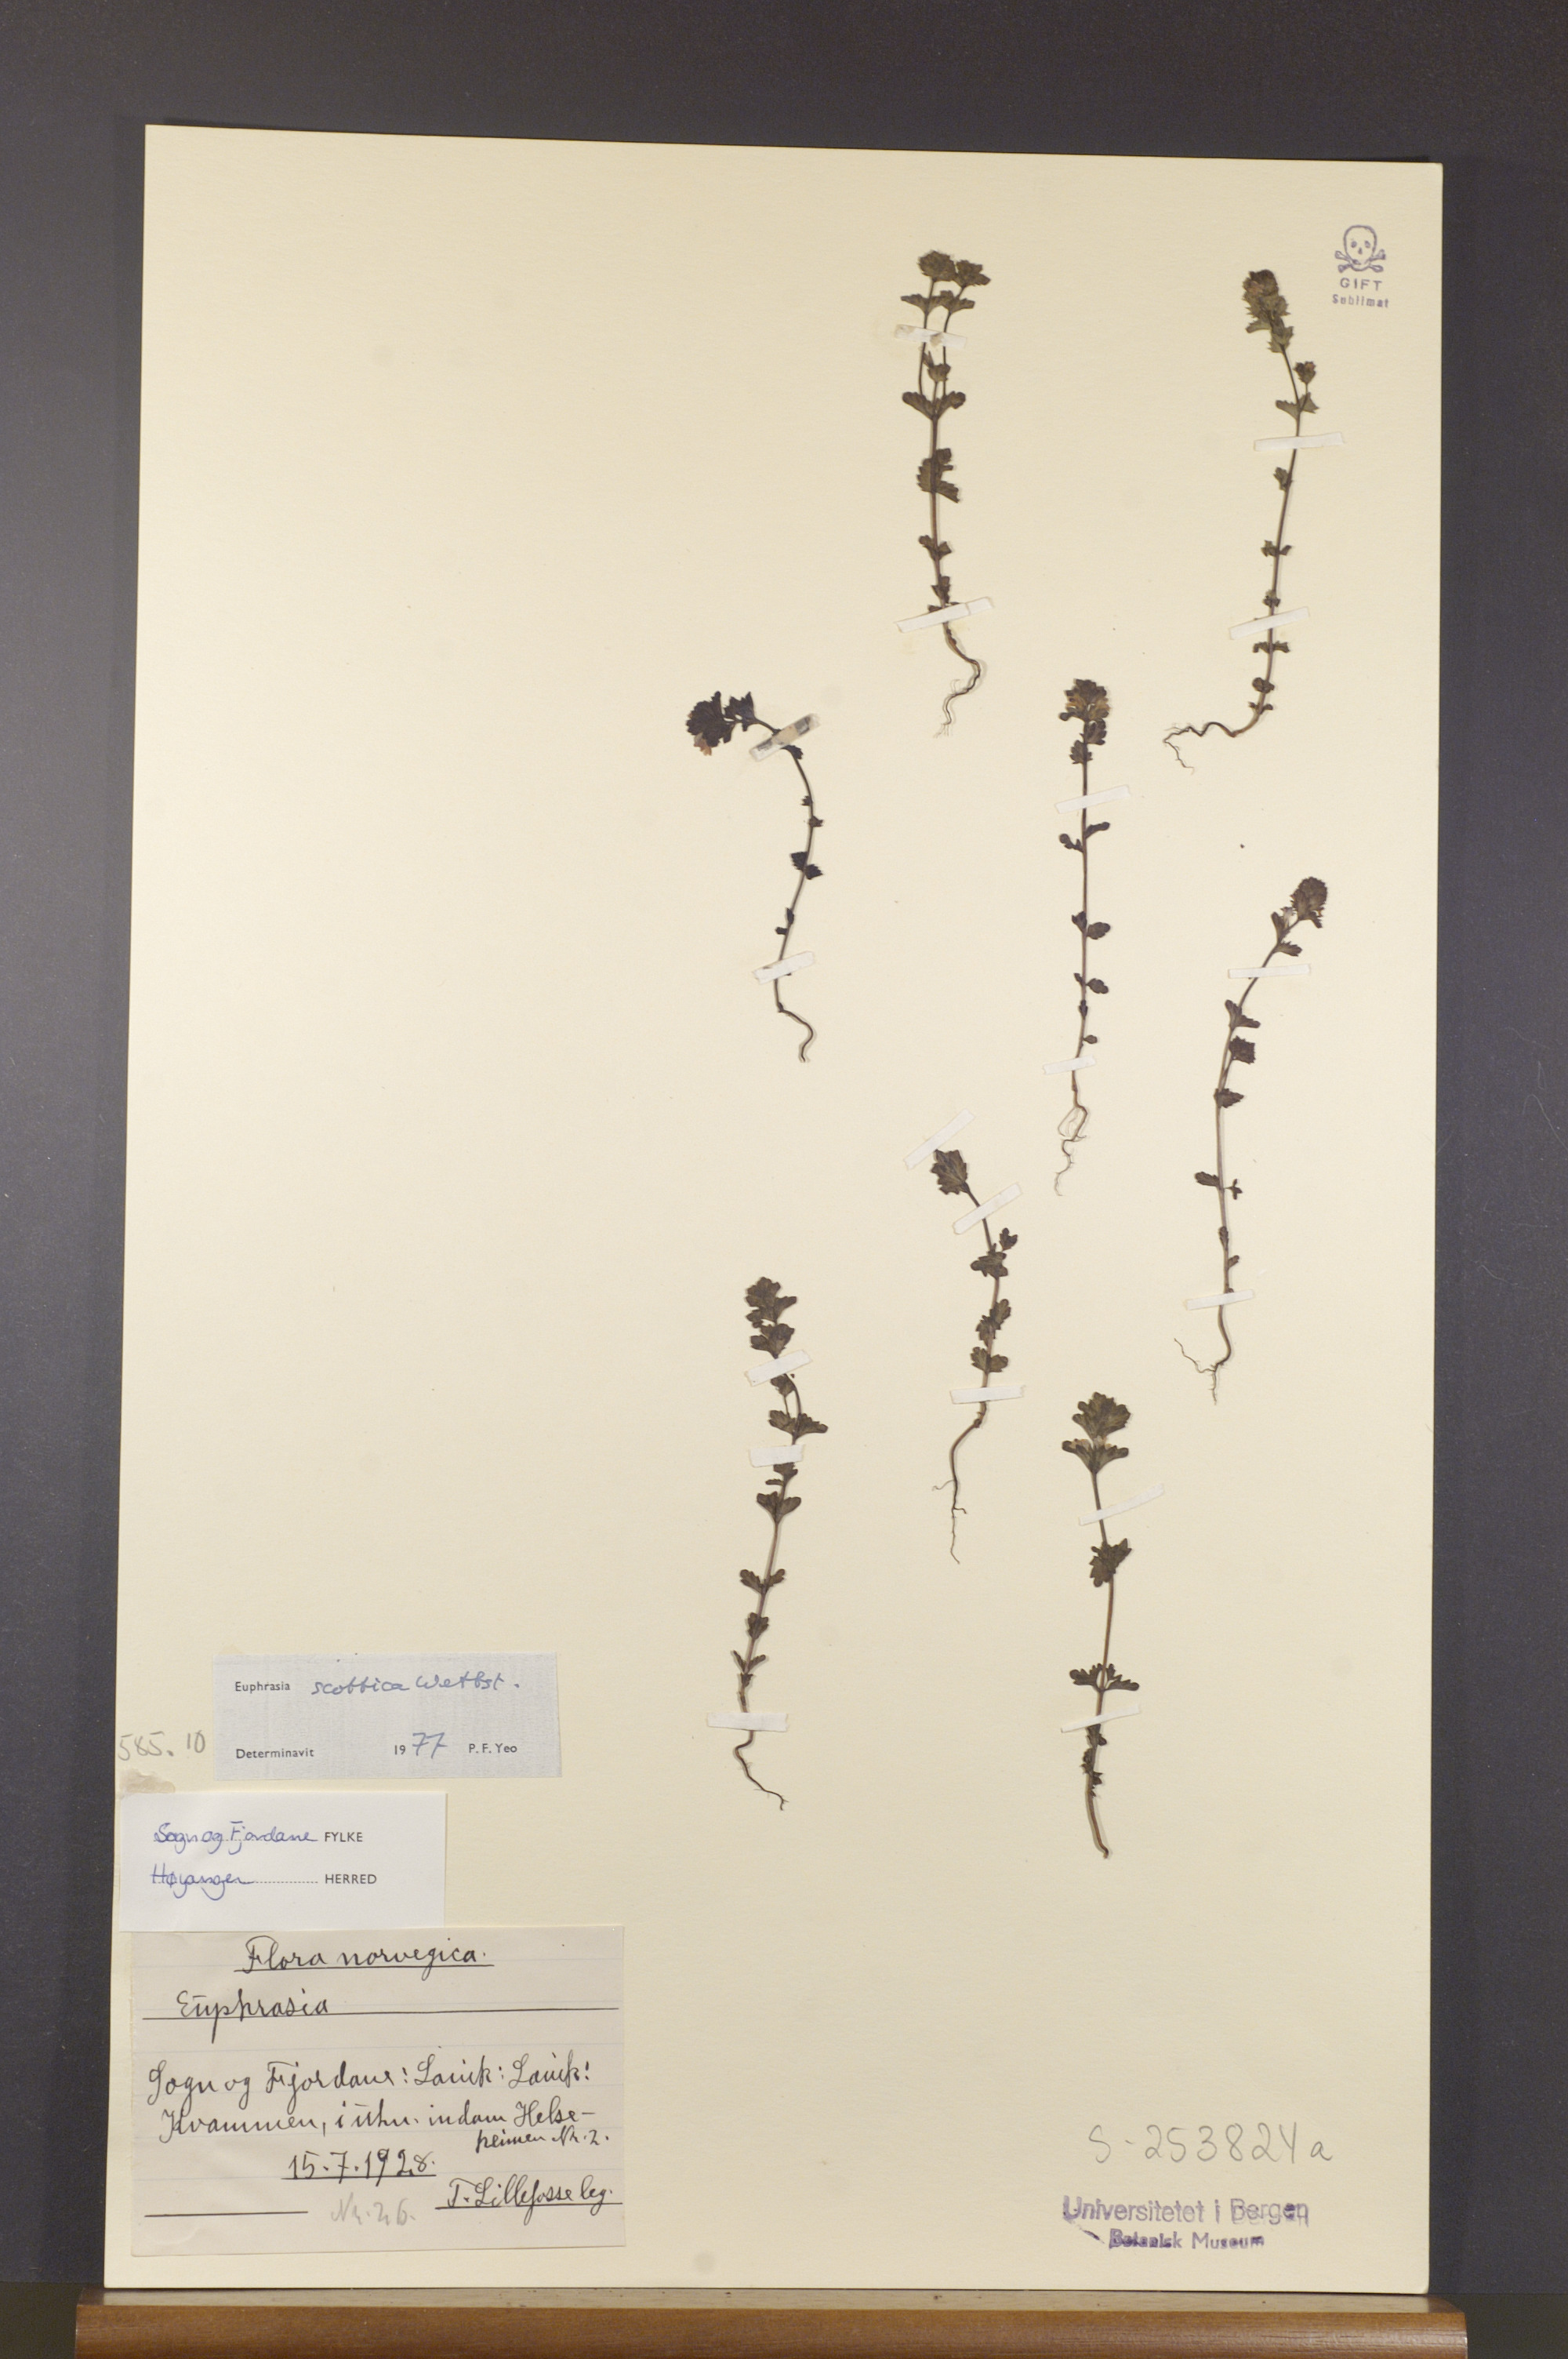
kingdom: Plantae
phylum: Tracheophyta
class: Magnoliopsida
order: Lamiales
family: Orobanchaceae
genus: Euphrasia
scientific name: Euphrasia scottica
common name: Slender scottish eyebright
